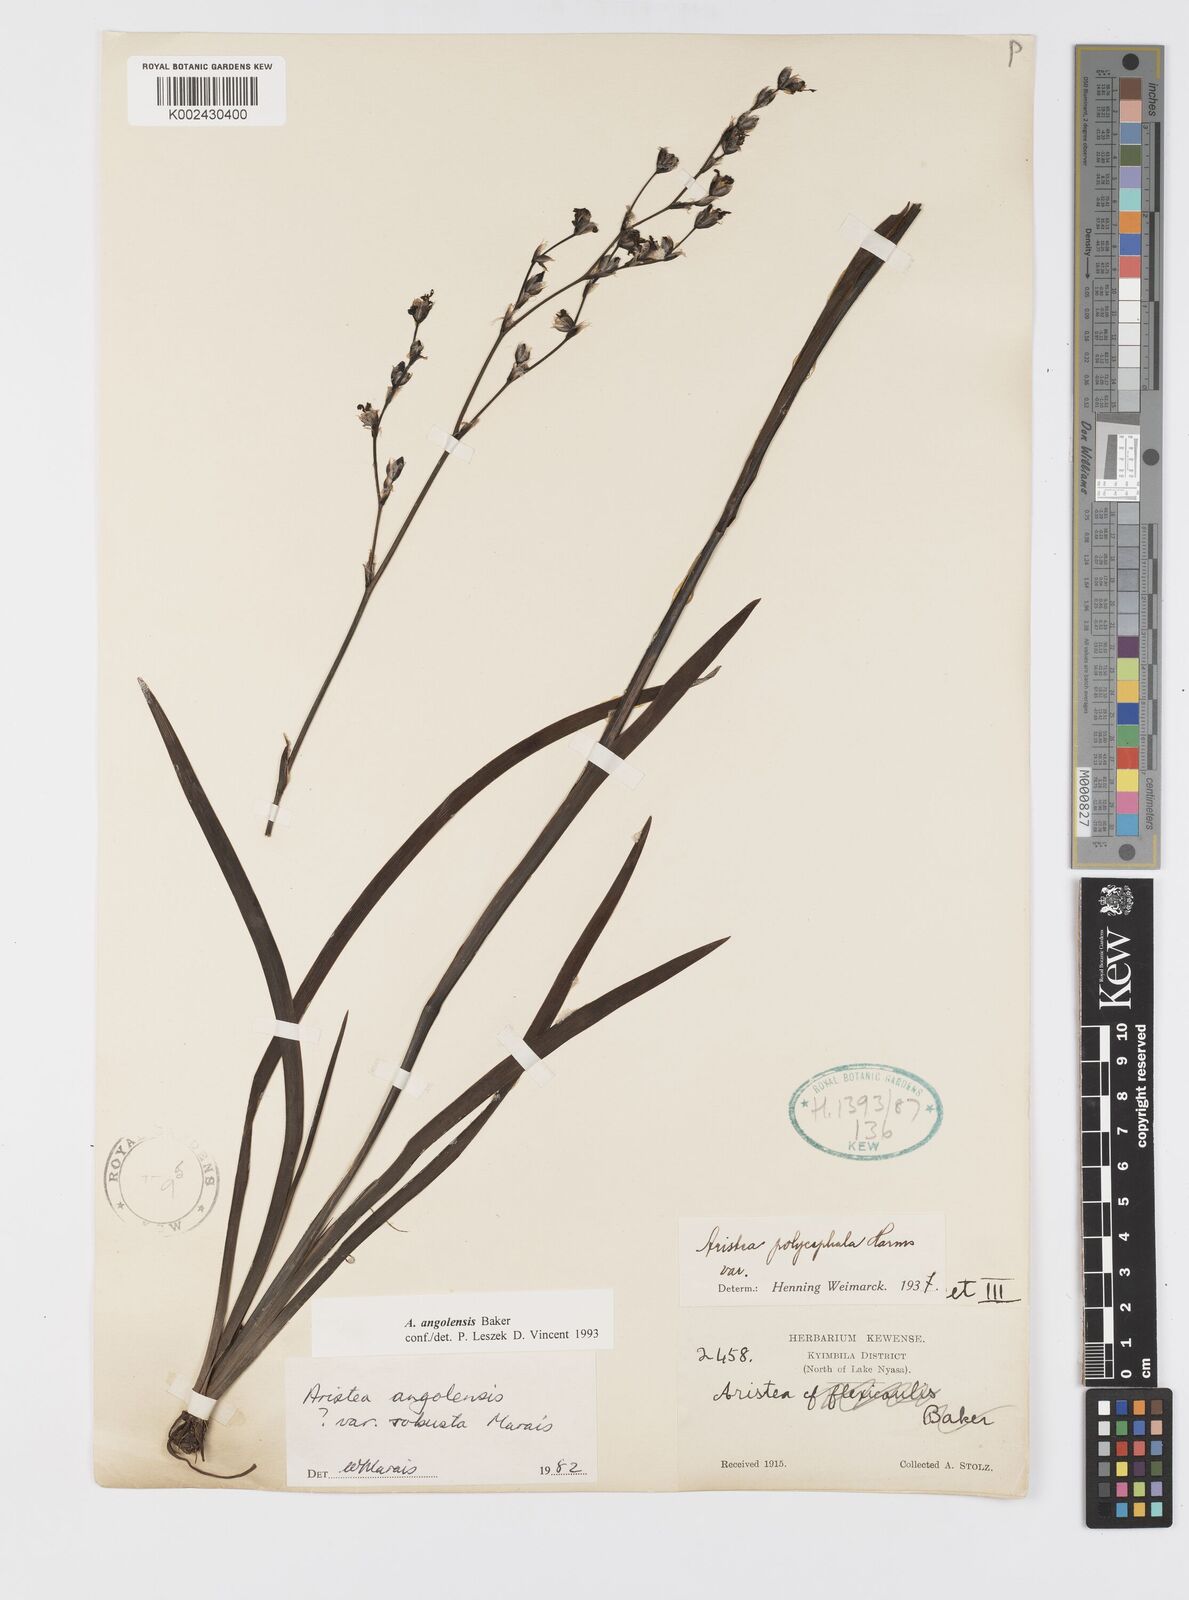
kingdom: Plantae
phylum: Tracheophyta
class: Liliopsida
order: Asparagales
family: Iridaceae
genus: Aristea
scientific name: Aristea angolensis
